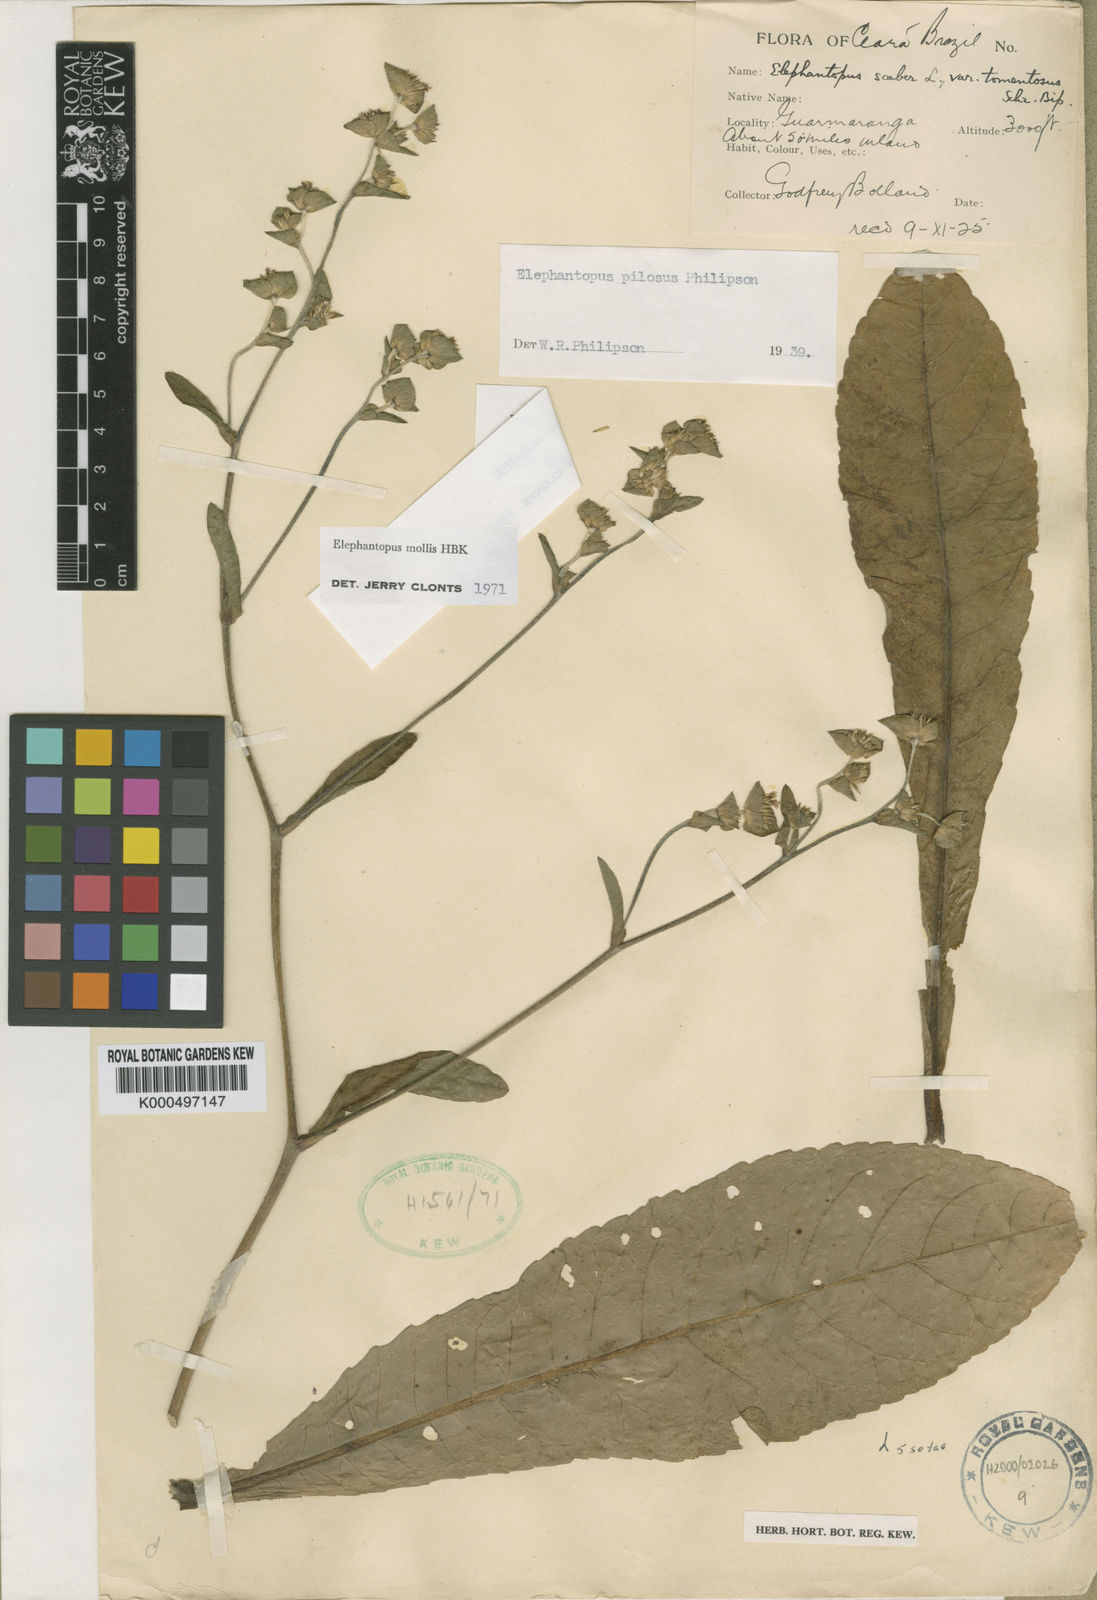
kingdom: Plantae
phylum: Tracheophyta
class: Magnoliopsida
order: Asterales
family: Asteraceae
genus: Elephantopus
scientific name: Elephantopus mollis
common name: Soft elephantsfoot
